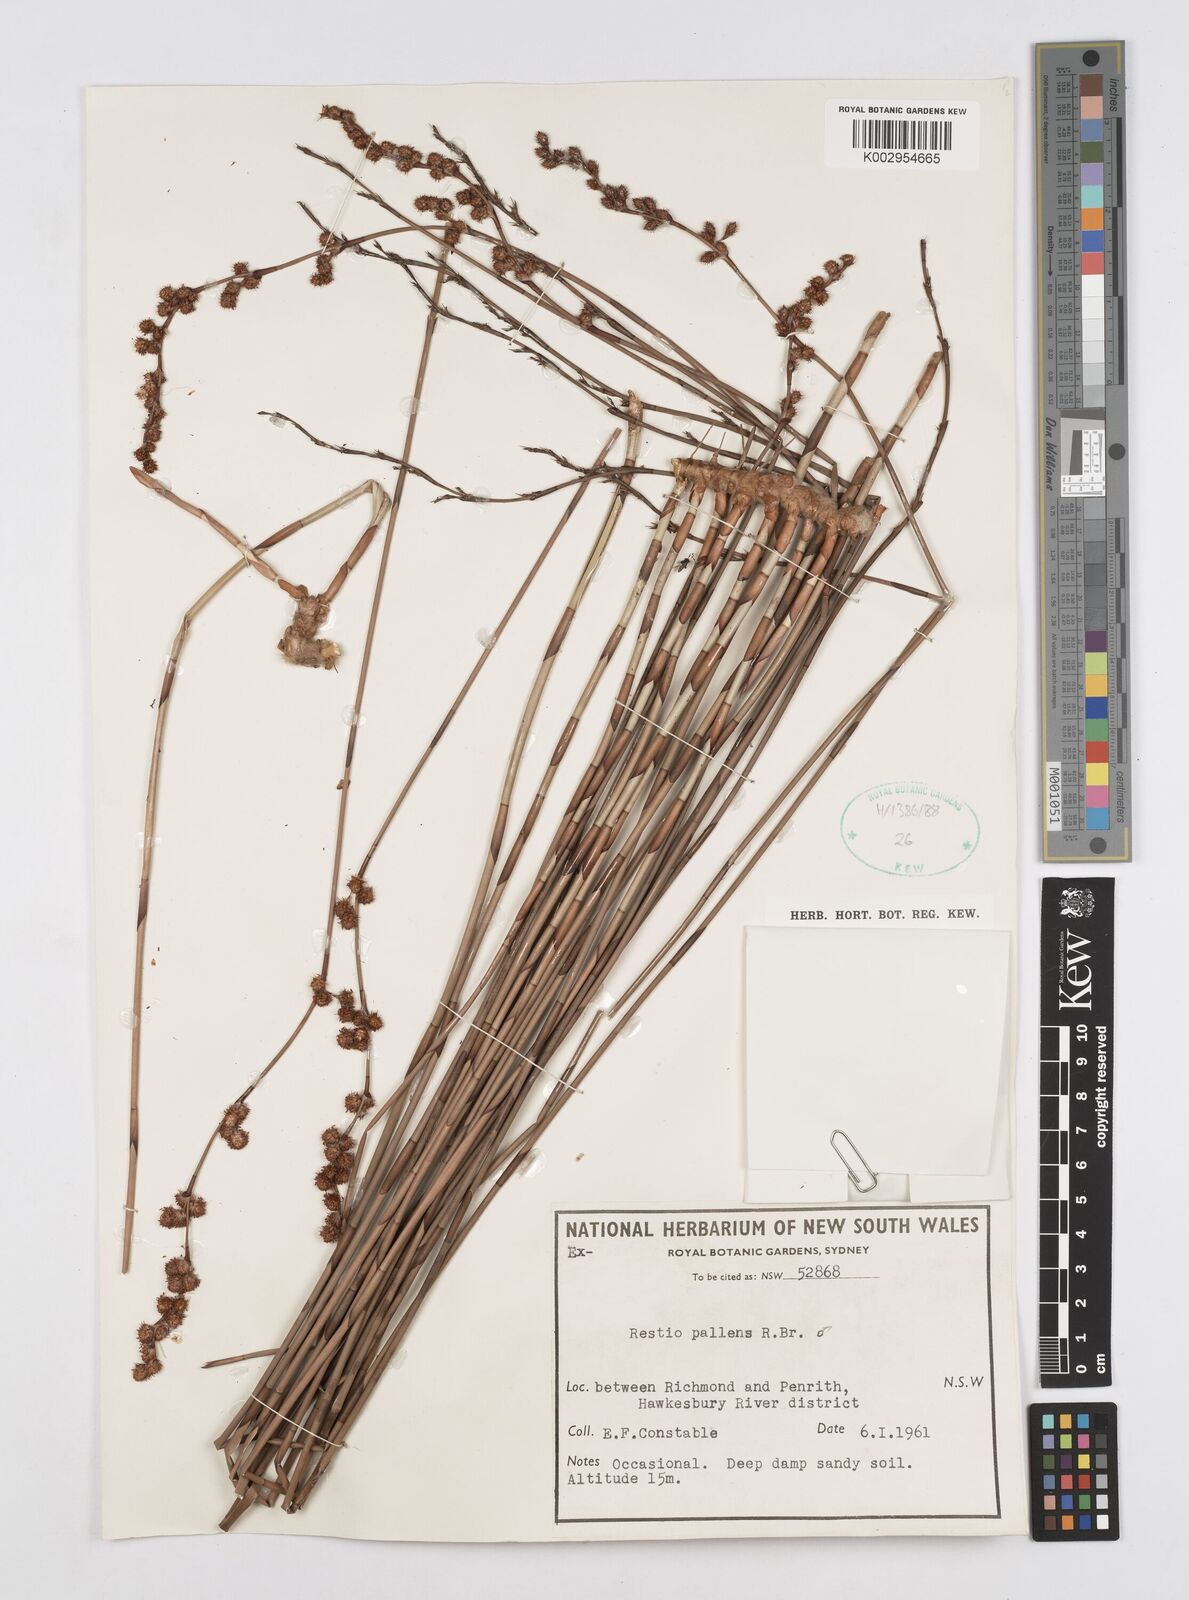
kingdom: Plantae
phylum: Tracheophyta
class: Liliopsida
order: Poales
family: Restionaceae
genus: Baloskion
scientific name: Baloskion pallens
